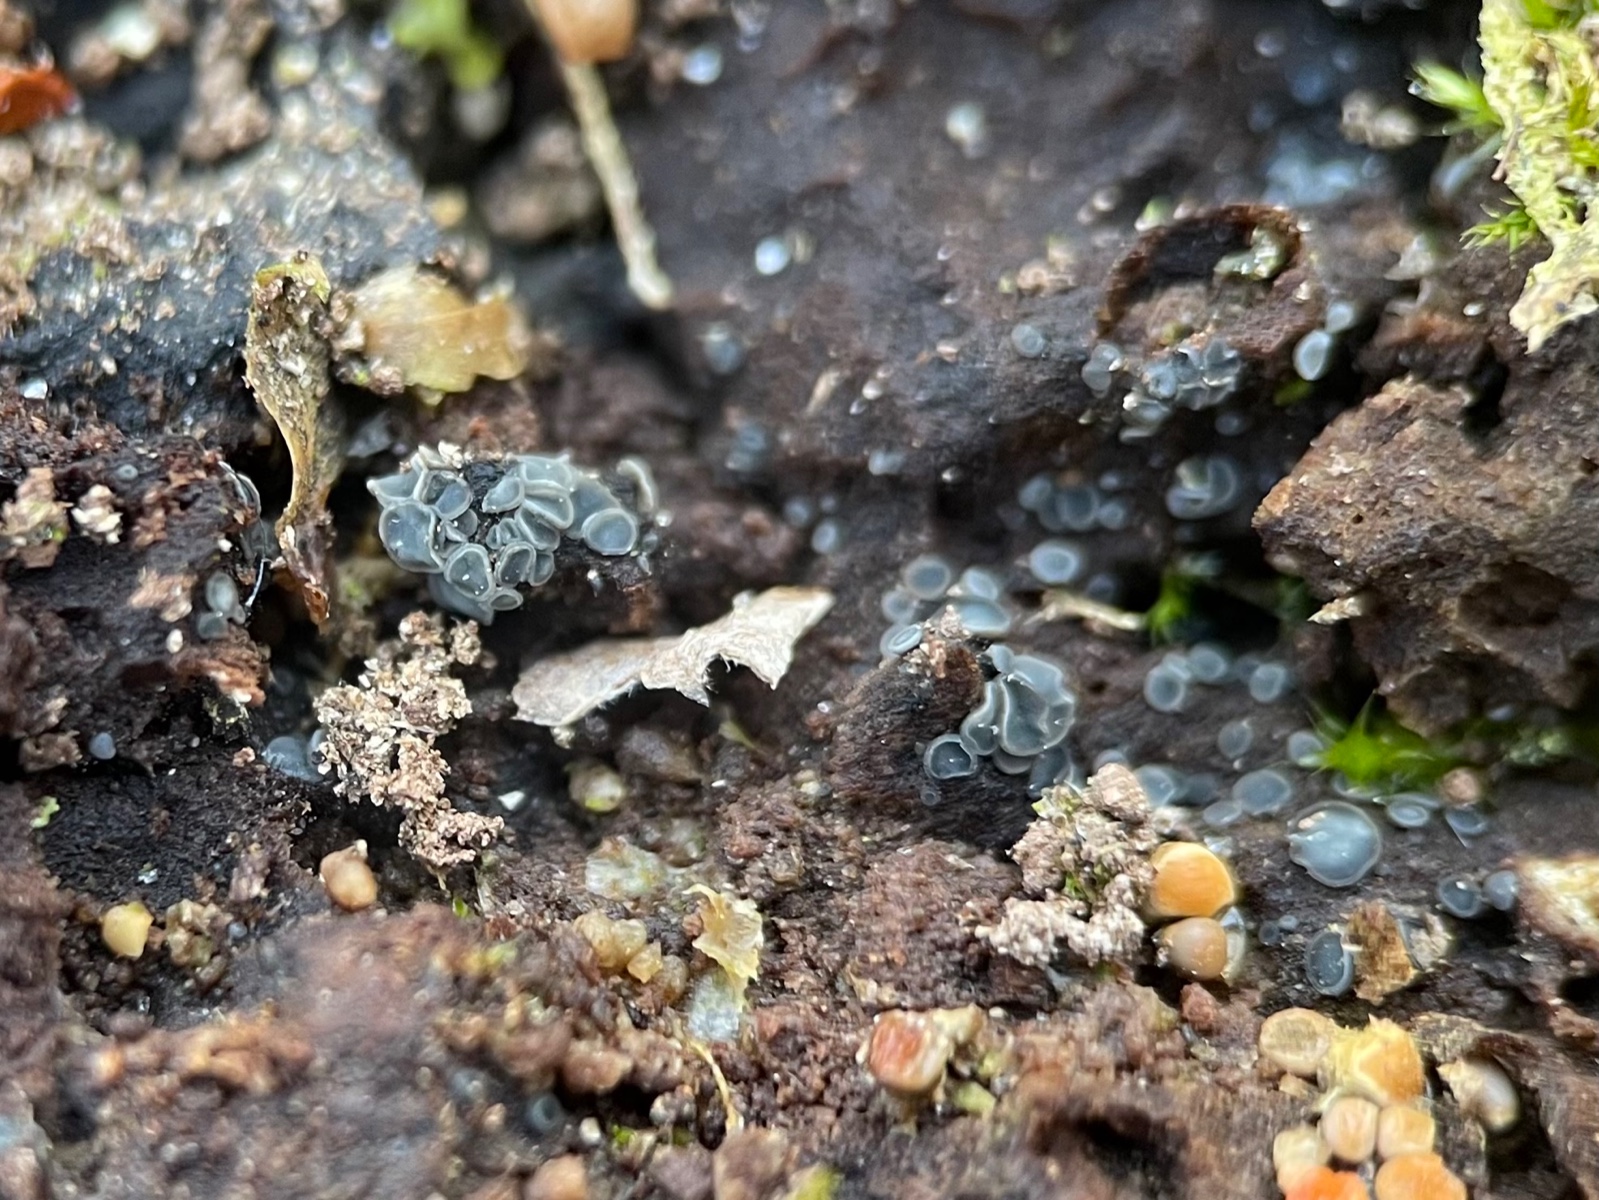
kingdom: Fungi
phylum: Ascomycota
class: Leotiomycetes
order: Helotiales
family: Mollisiaceae
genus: Mollisia
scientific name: Mollisia
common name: gråskive
